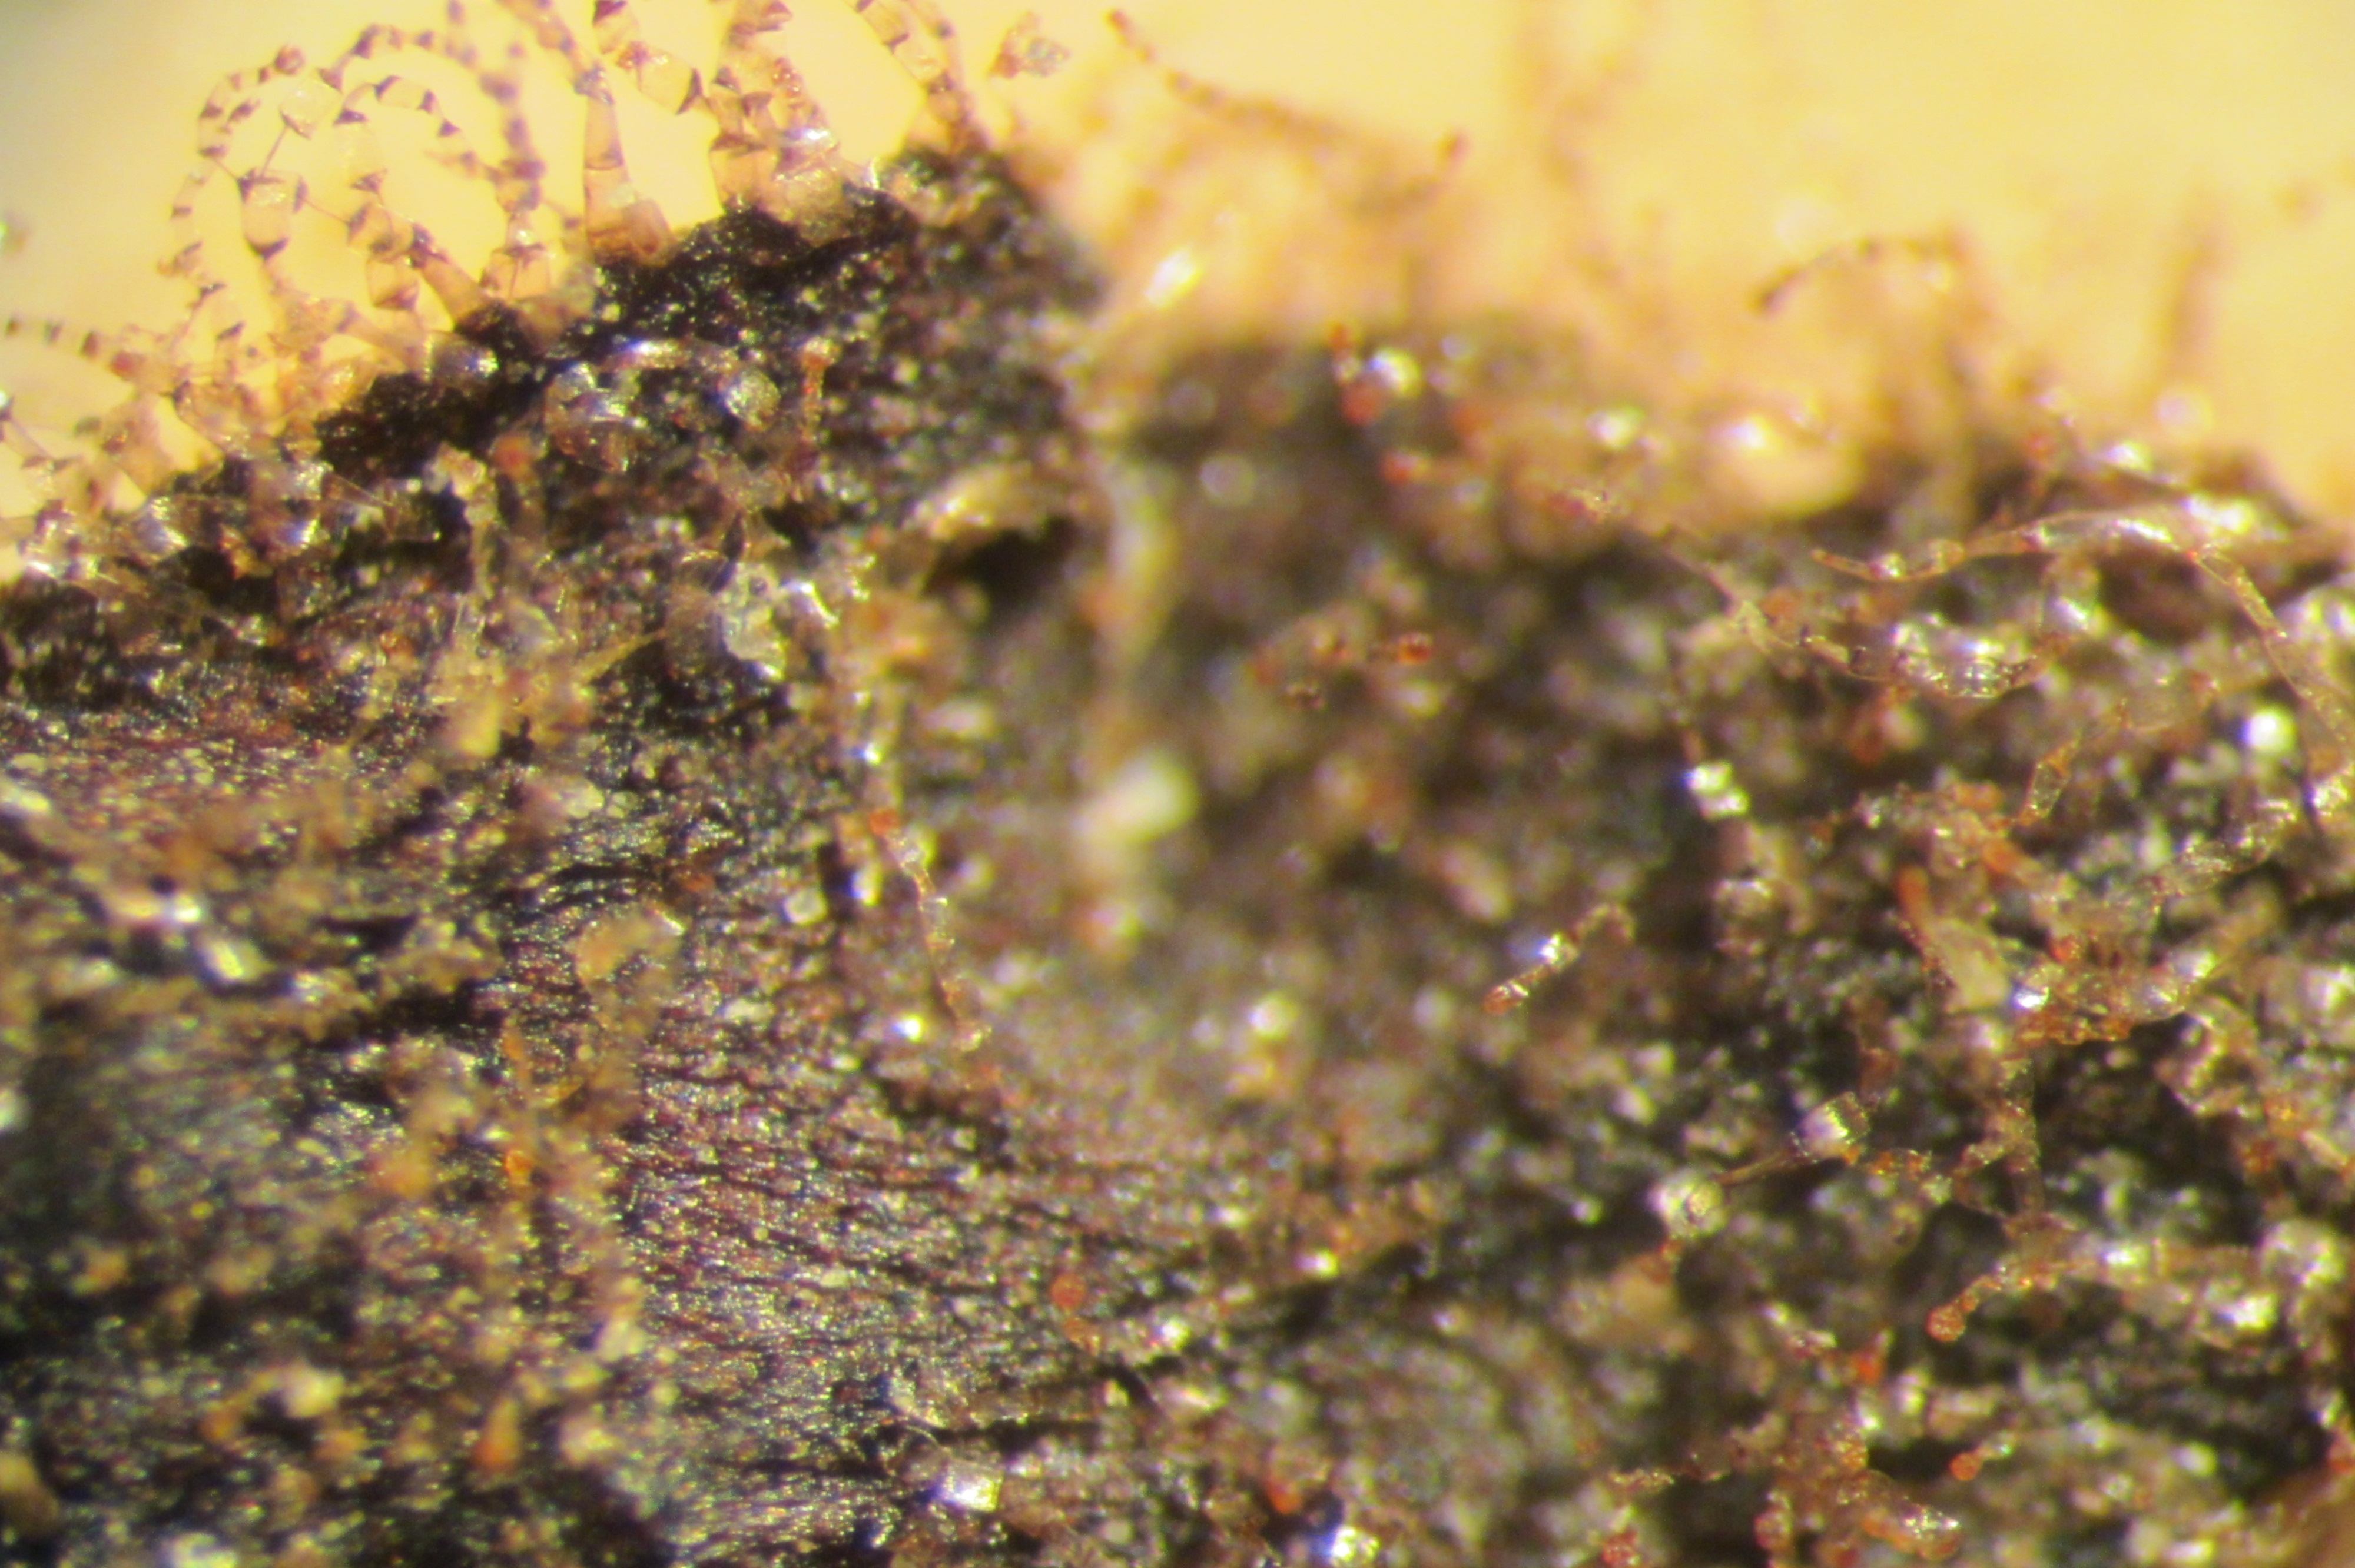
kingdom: Plantae
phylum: Tracheophyta
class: Magnoliopsida
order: Lamiales
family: Plantaginaceae
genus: Ourisia
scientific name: Ourisia remotifolia
